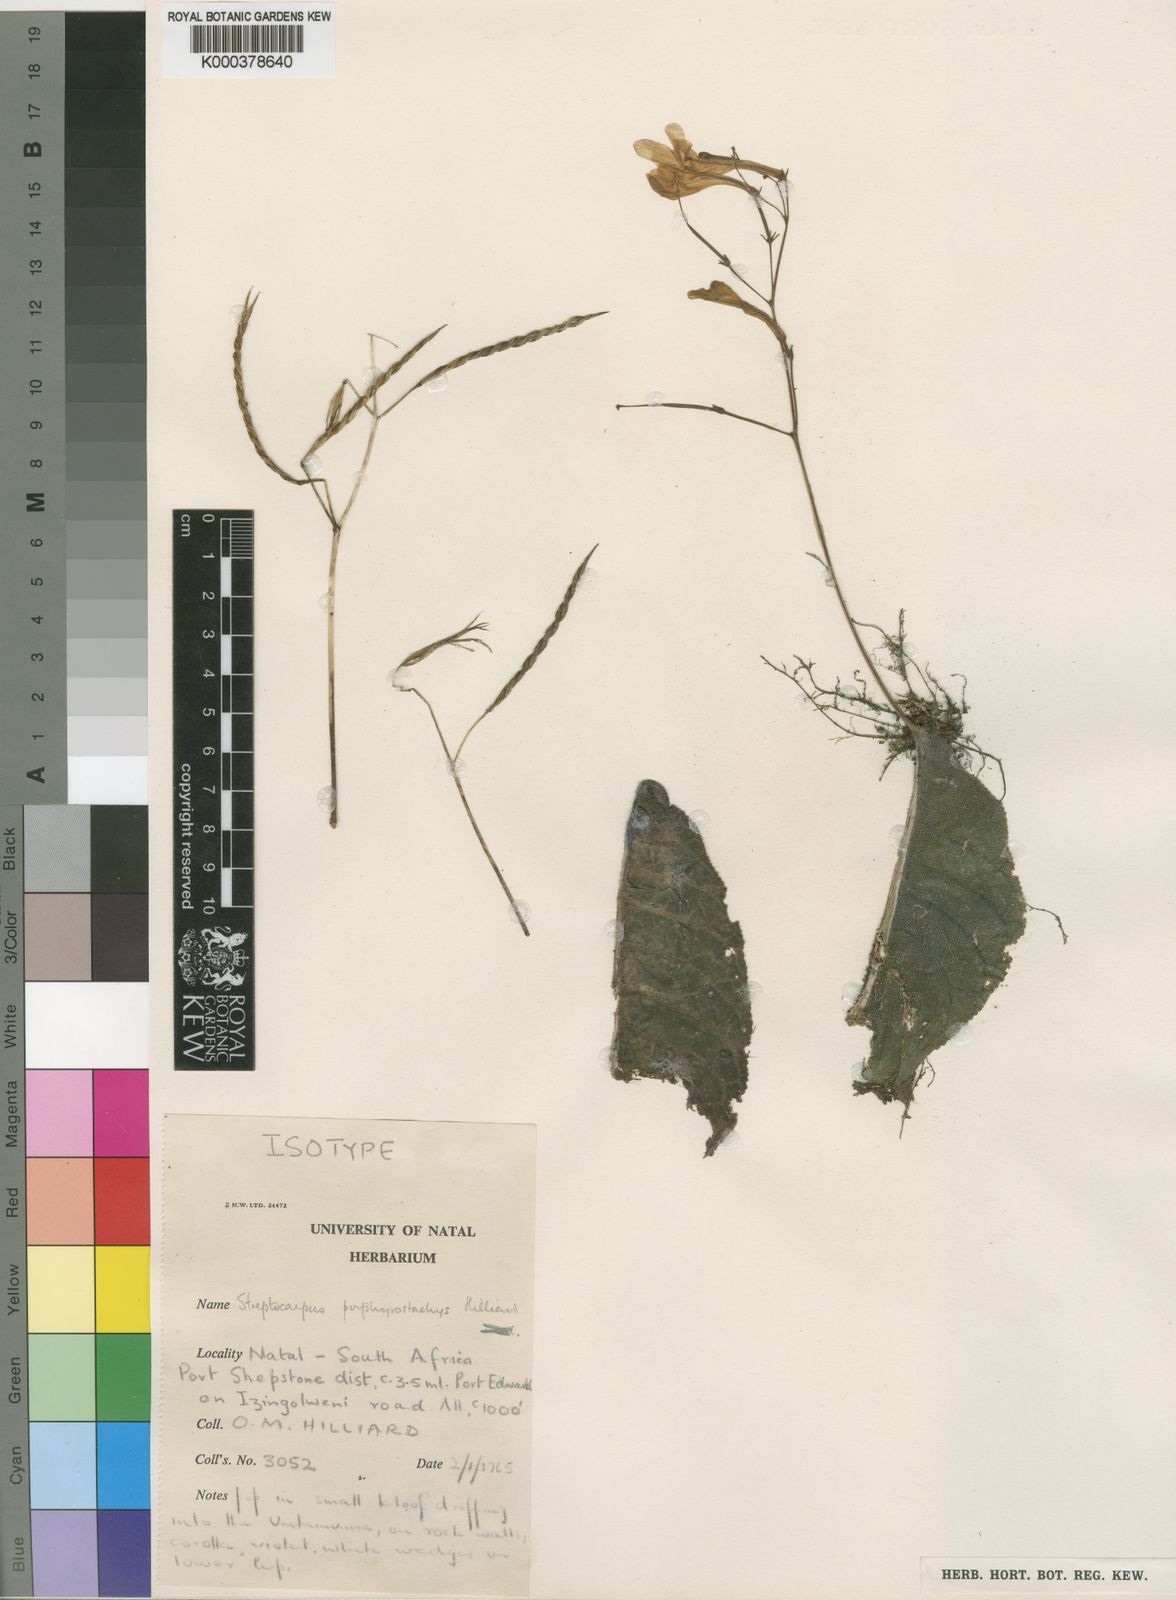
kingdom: Plantae
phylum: Tracheophyta
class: Magnoliopsida
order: Lamiales
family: Gesneriaceae
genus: Streptocarpus
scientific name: Streptocarpus porphyrostachys
